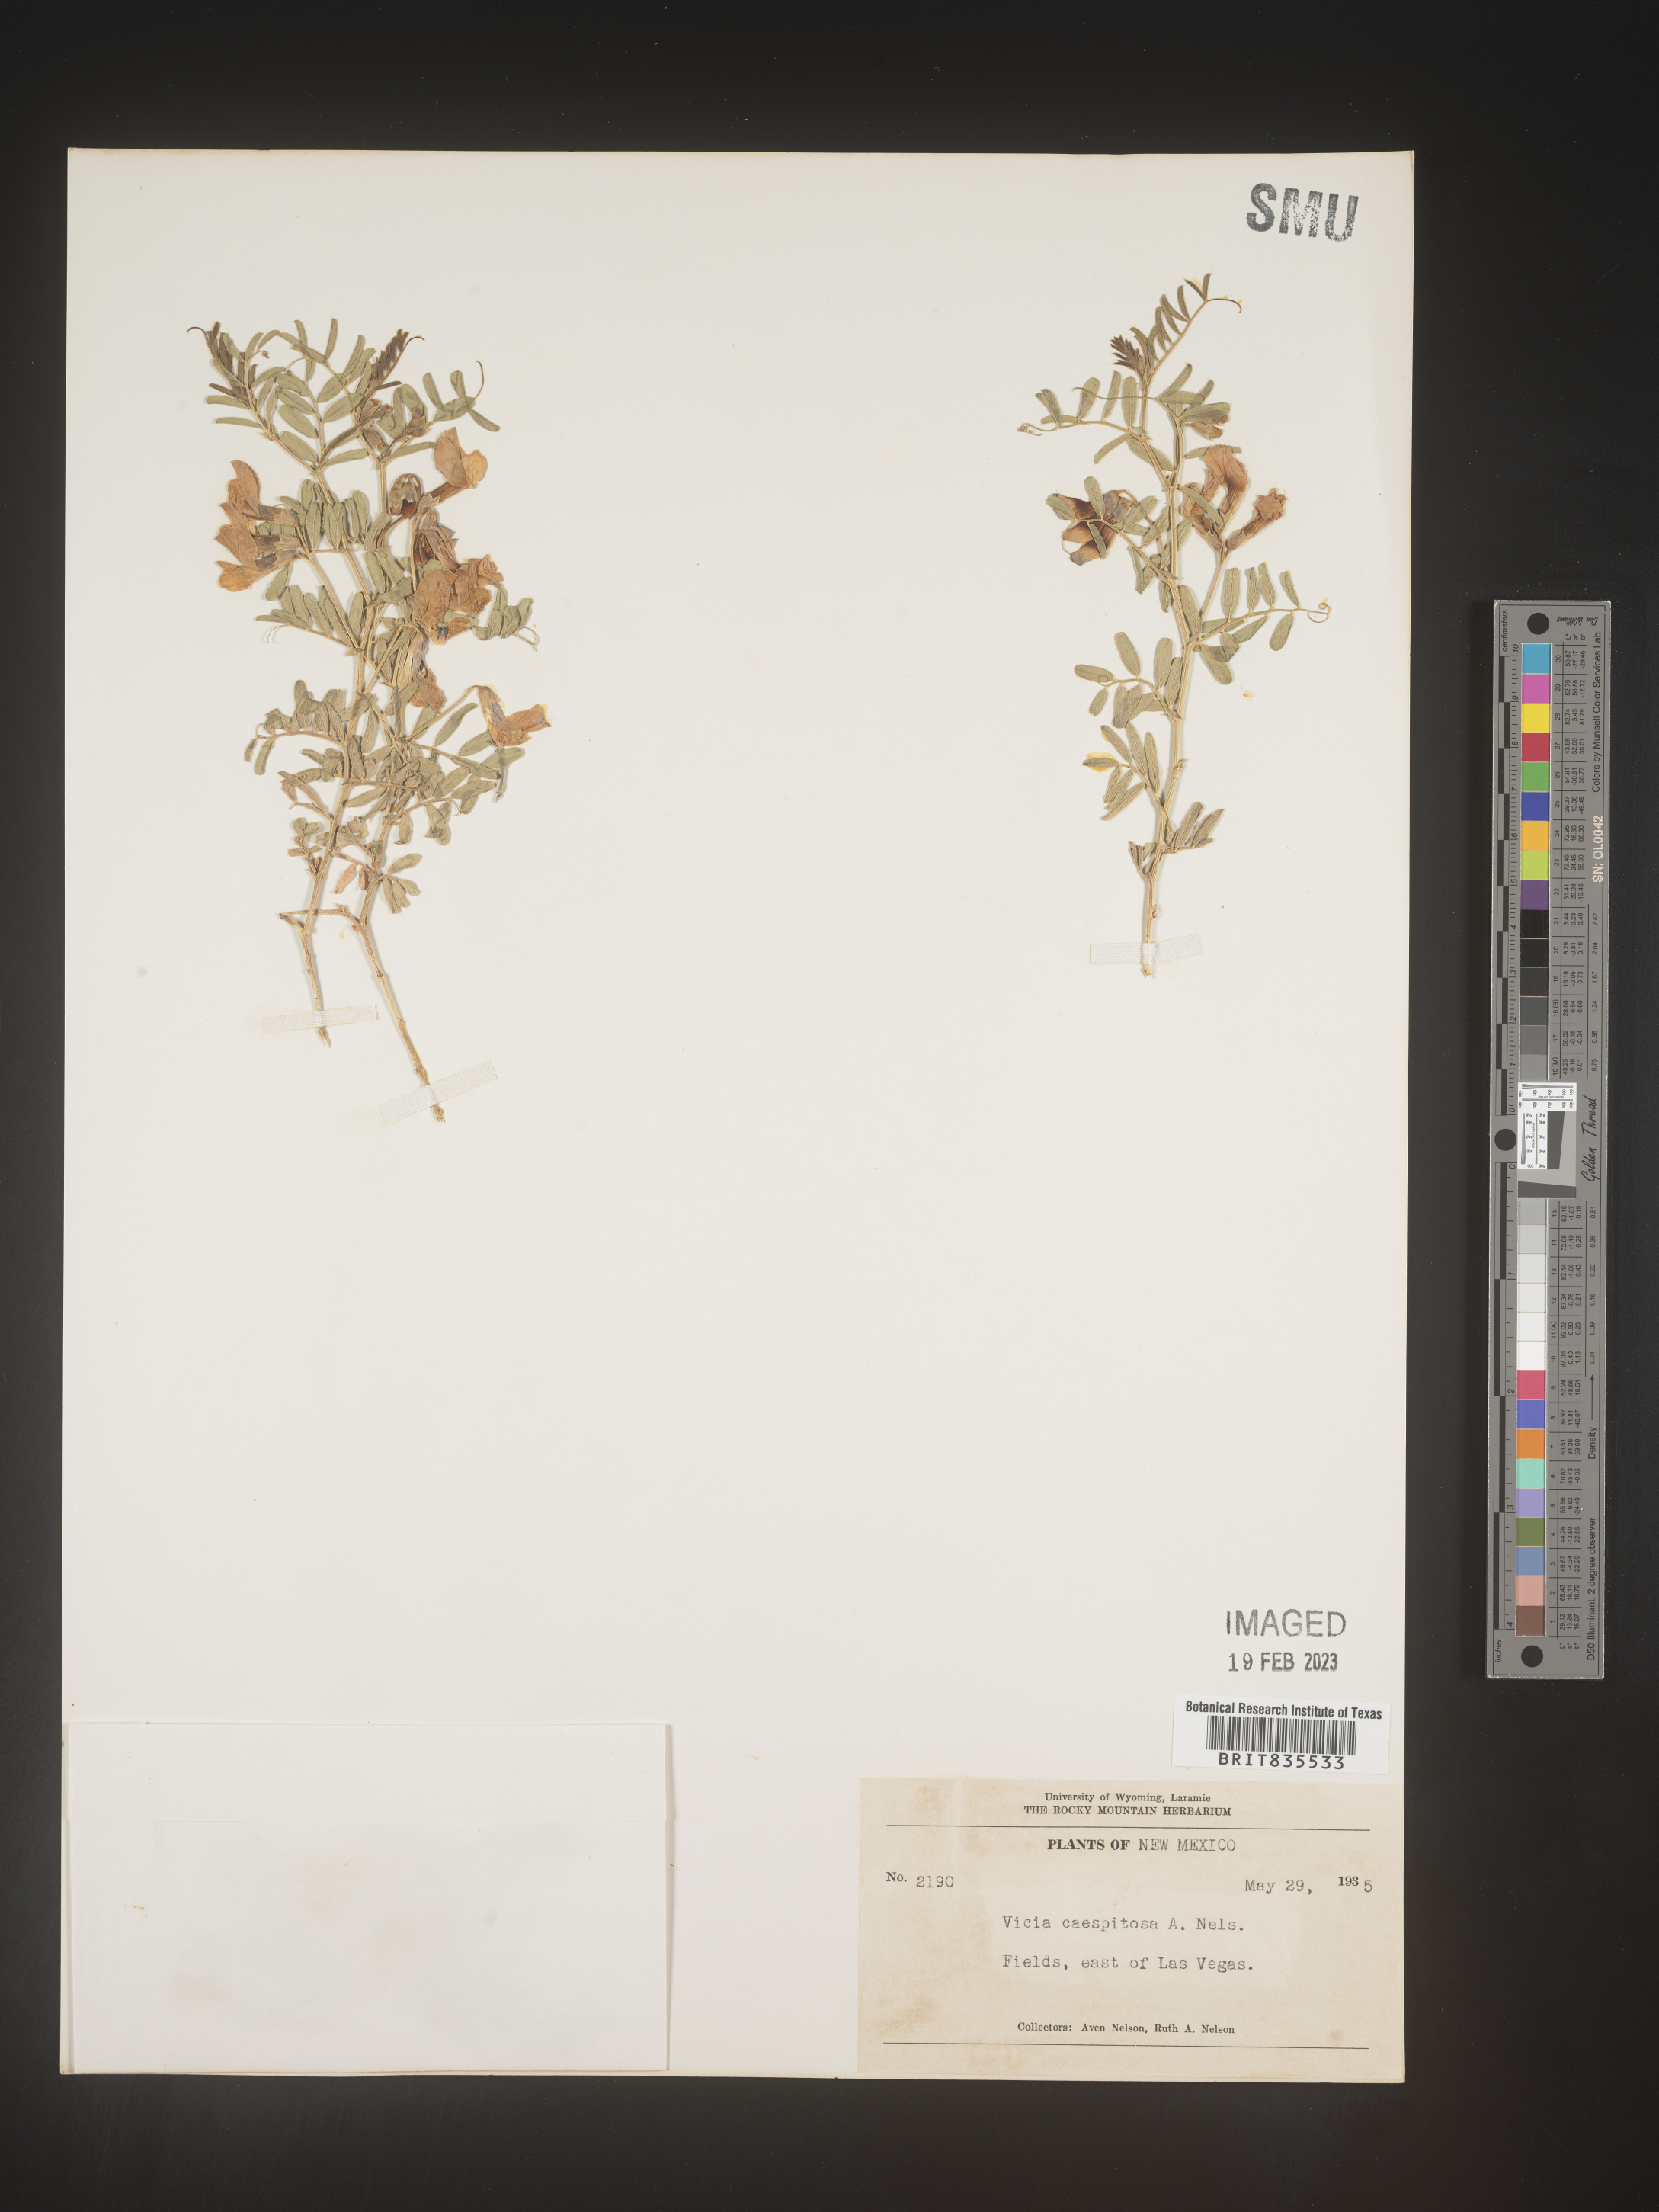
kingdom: Plantae
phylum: Tracheophyta
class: Magnoliopsida
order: Fabales
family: Fabaceae
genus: Vicia
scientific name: Vicia americana
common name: American vetch
